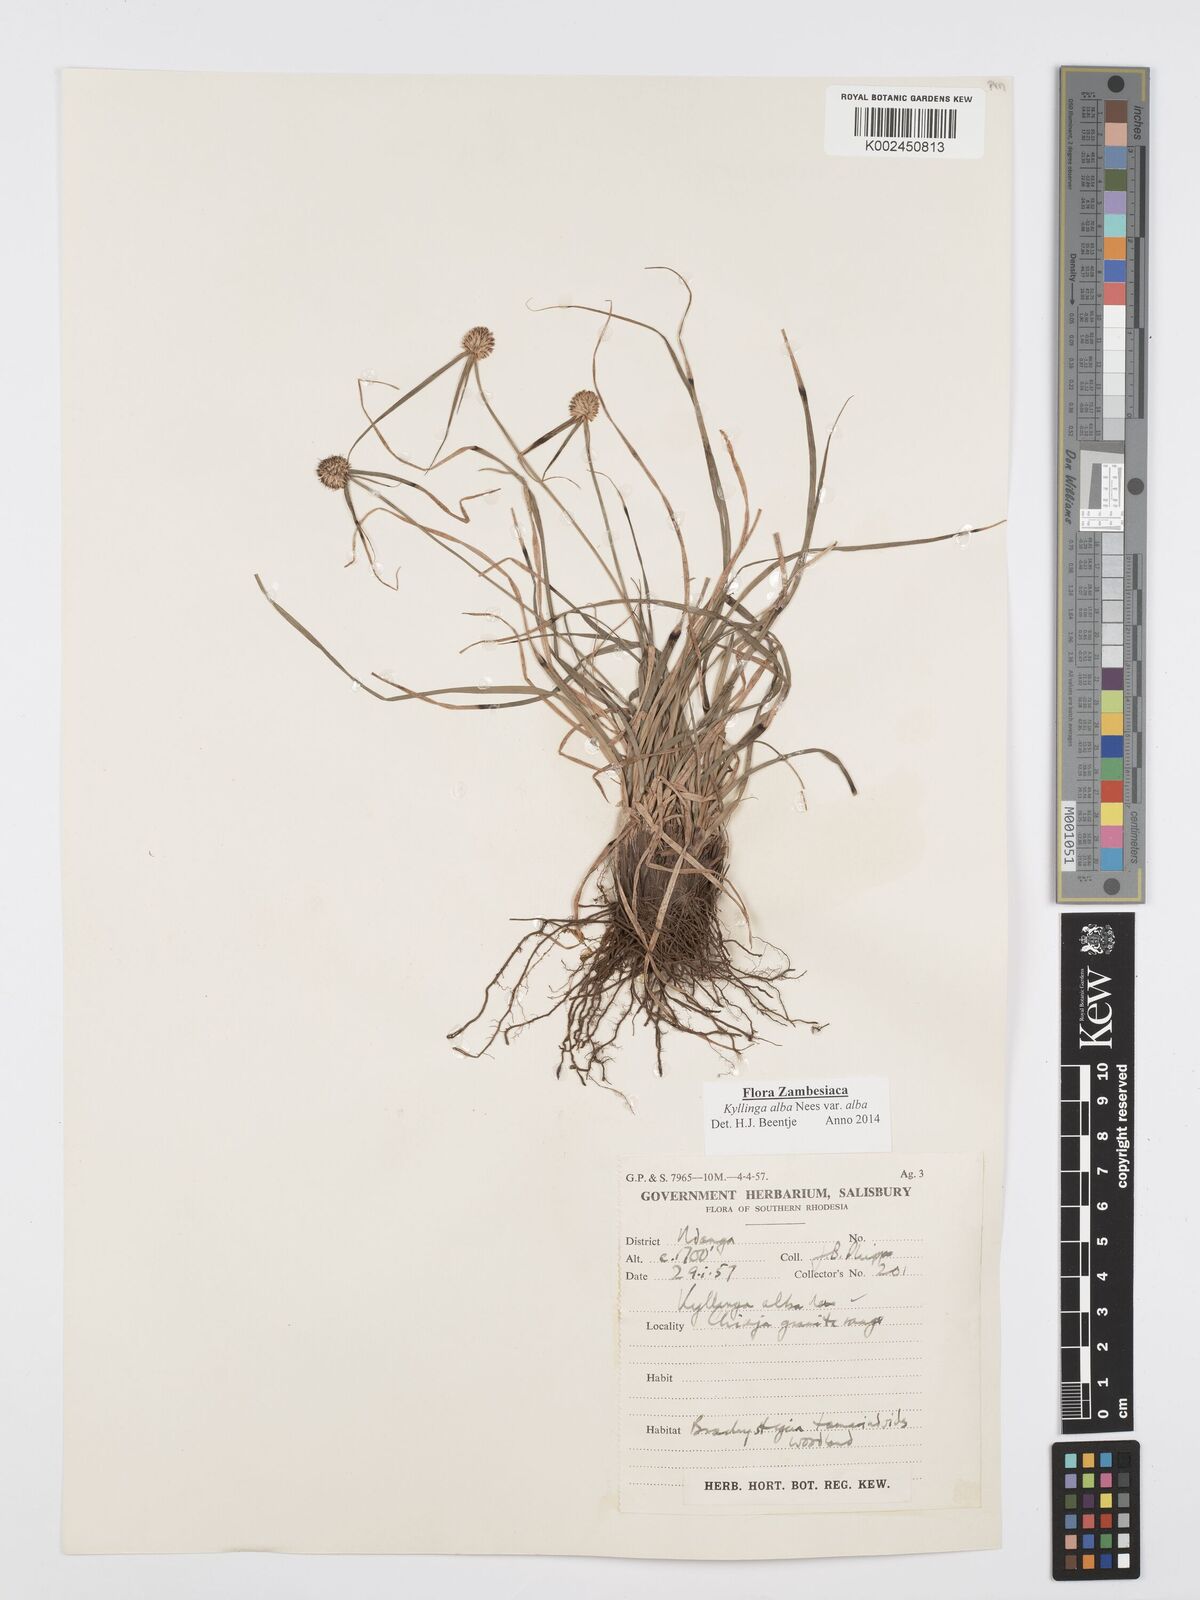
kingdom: Plantae
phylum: Tracheophyta
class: Liliopsida
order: Poales
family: Cyperaceae
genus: Cyperus
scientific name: Cyperus
